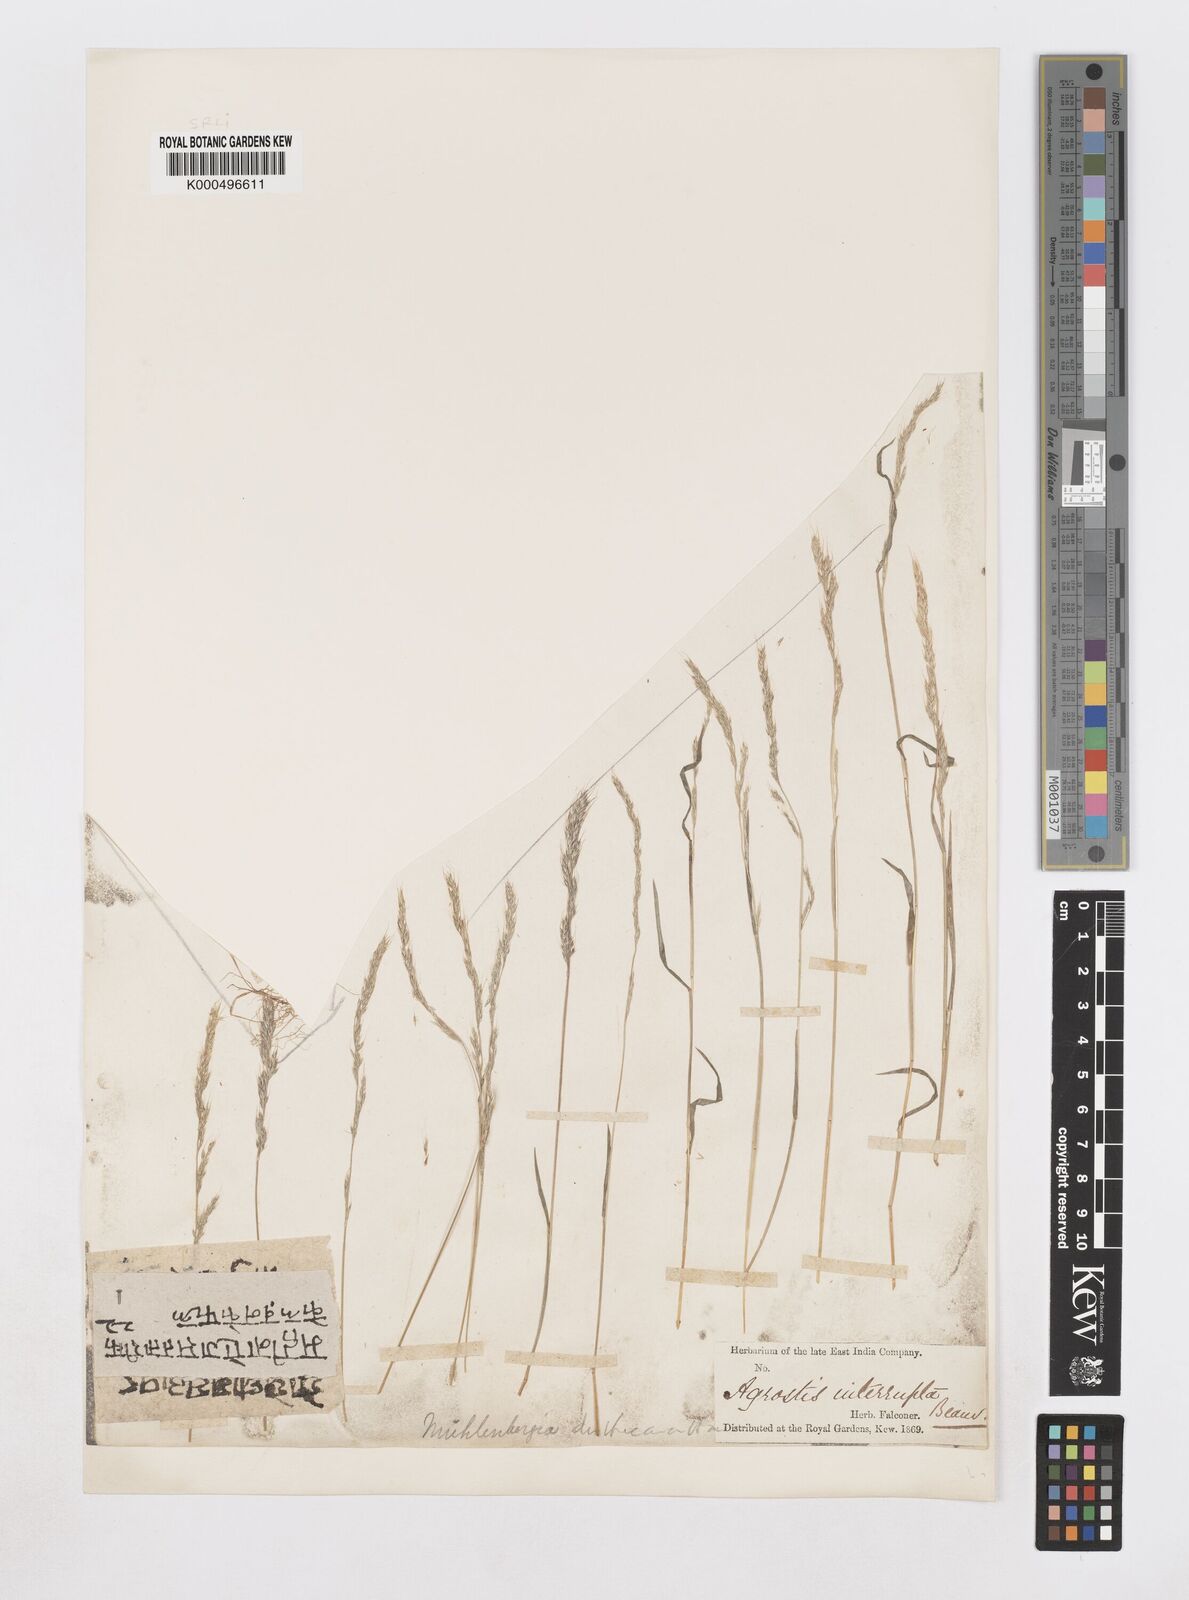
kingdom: Plantae
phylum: Tracheophyta
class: Liliopsida
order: Poales
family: Poaceae
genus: Muhlenbergia
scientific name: Muhlenbergia duthieana
